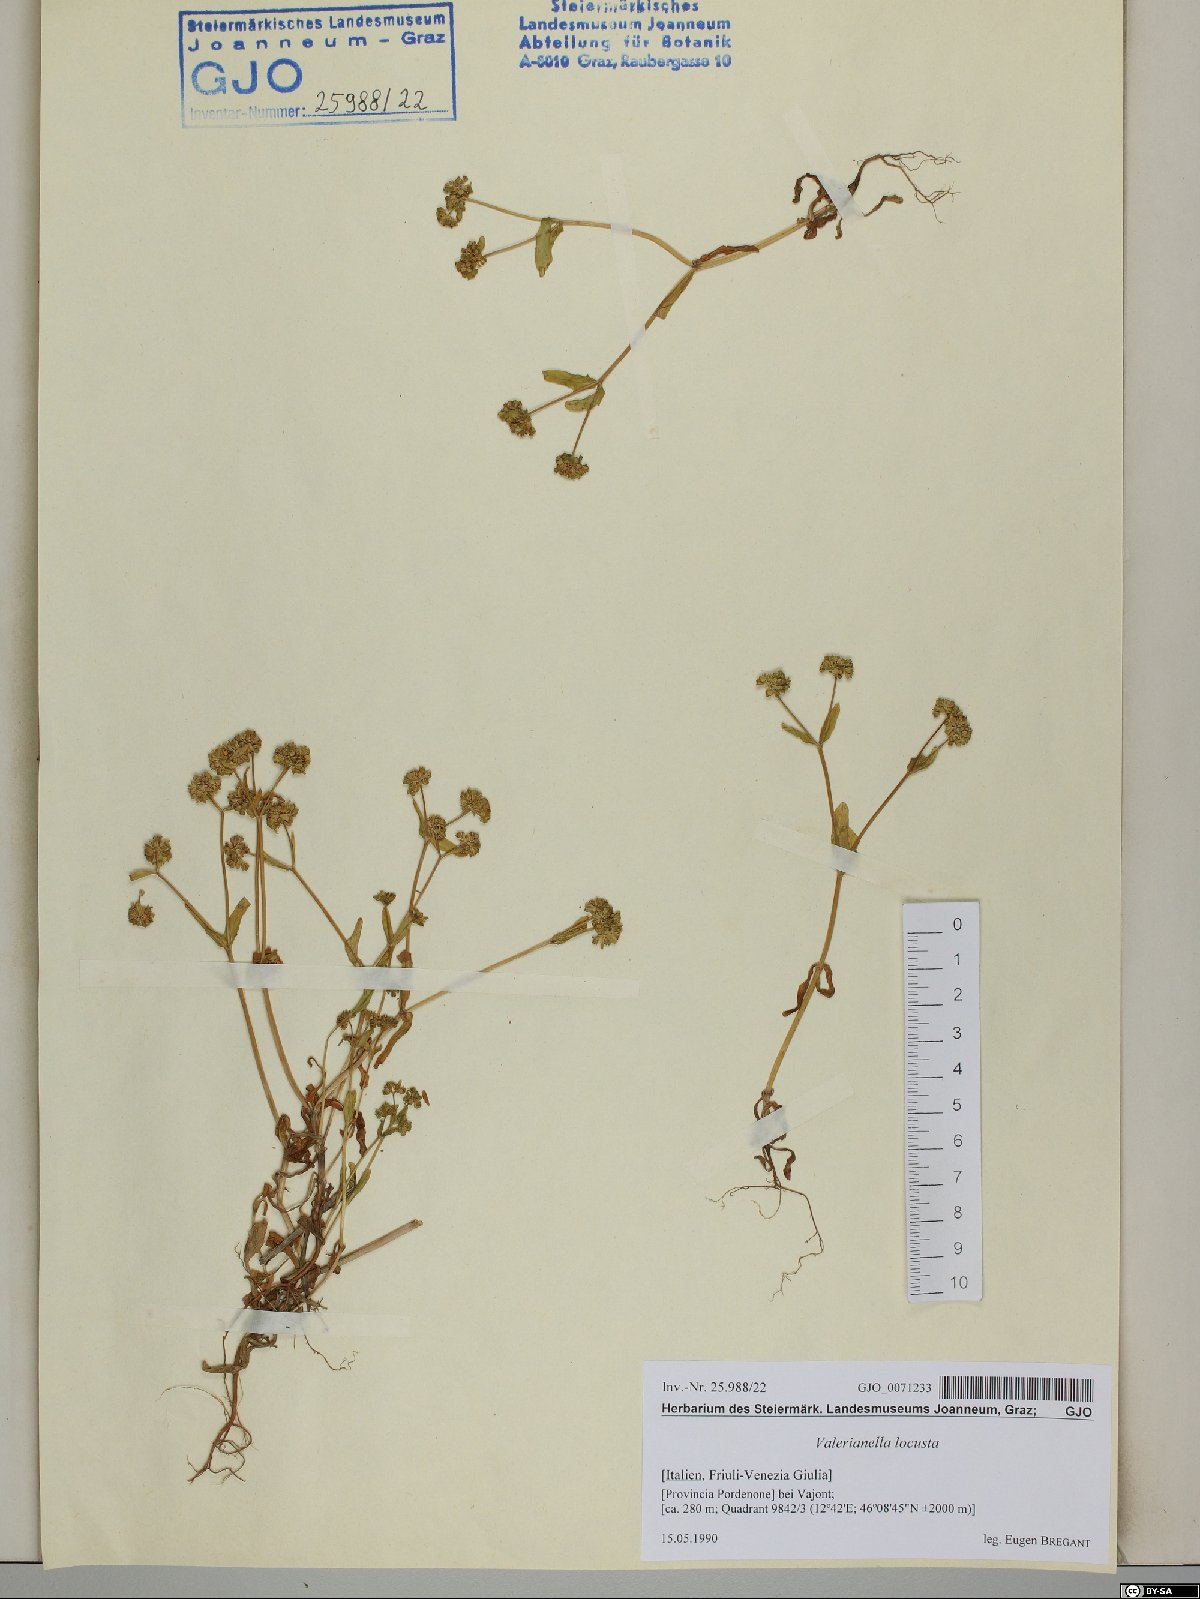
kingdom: Plantae
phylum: Tracheophyta
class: Magnoliopsida
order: Dipsacales
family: Caprifoliaceae
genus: Valerianella
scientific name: Valerianella locusta
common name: Common cornsalad
